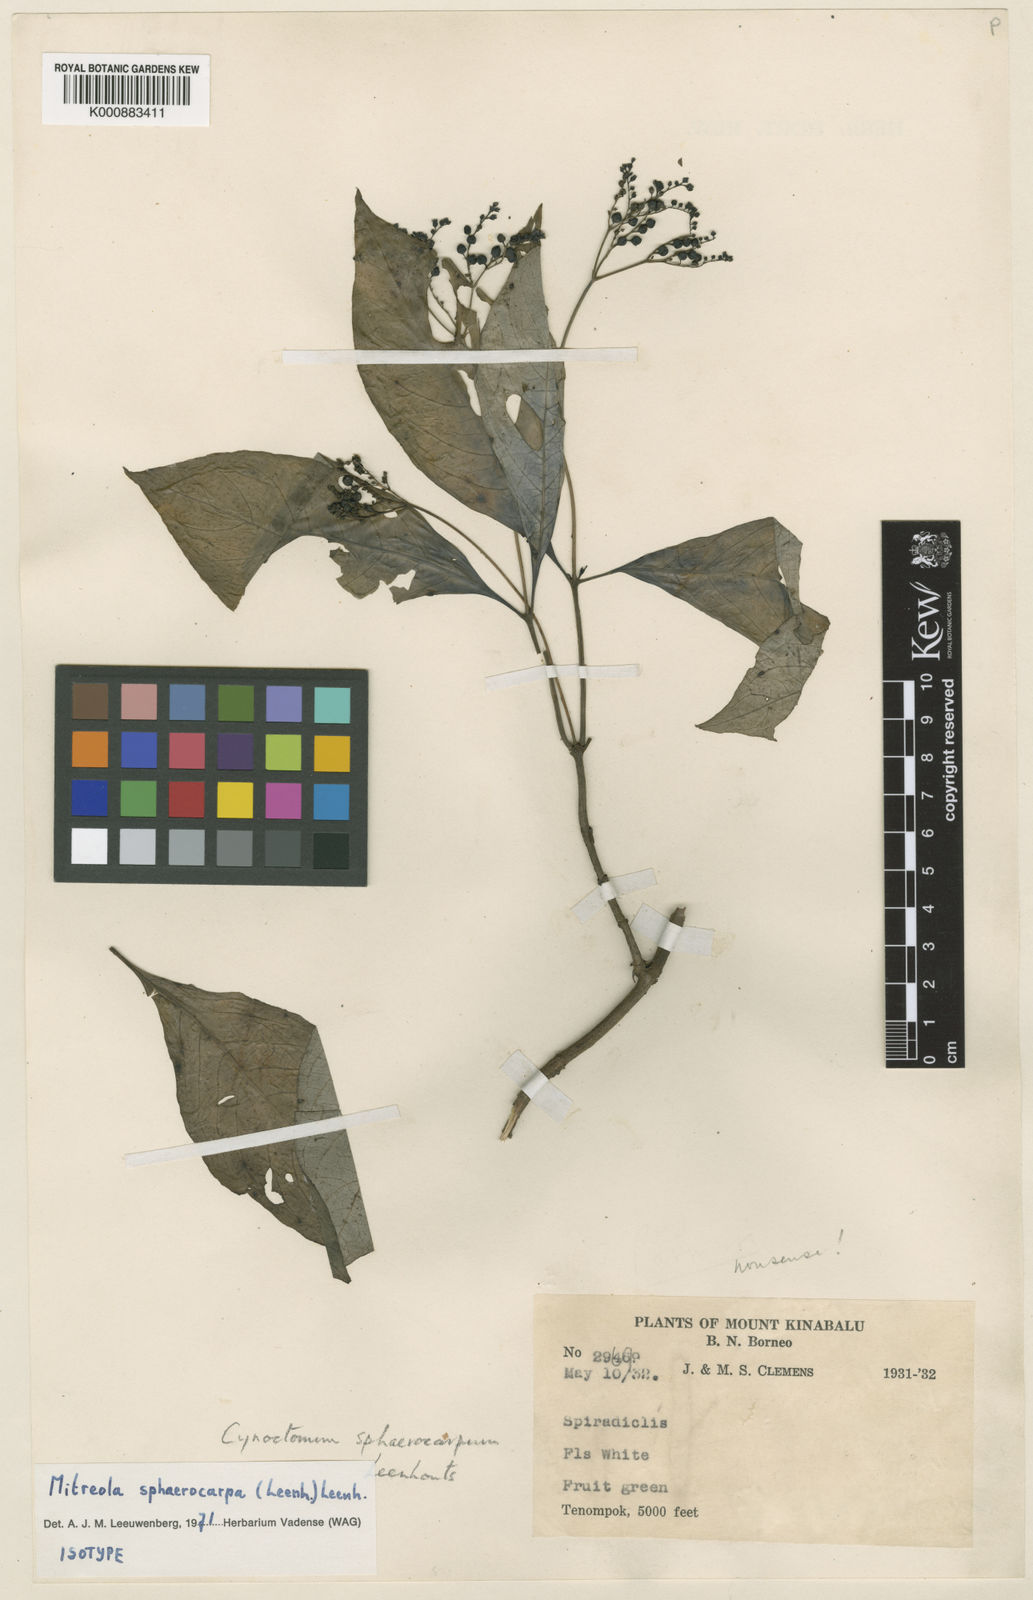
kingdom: Plantae
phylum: Tracheophyta
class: Magnoliopsida
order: Gentianales
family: Loganiaceae
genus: Mitreola
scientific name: Mitreola sphaerocarpa
